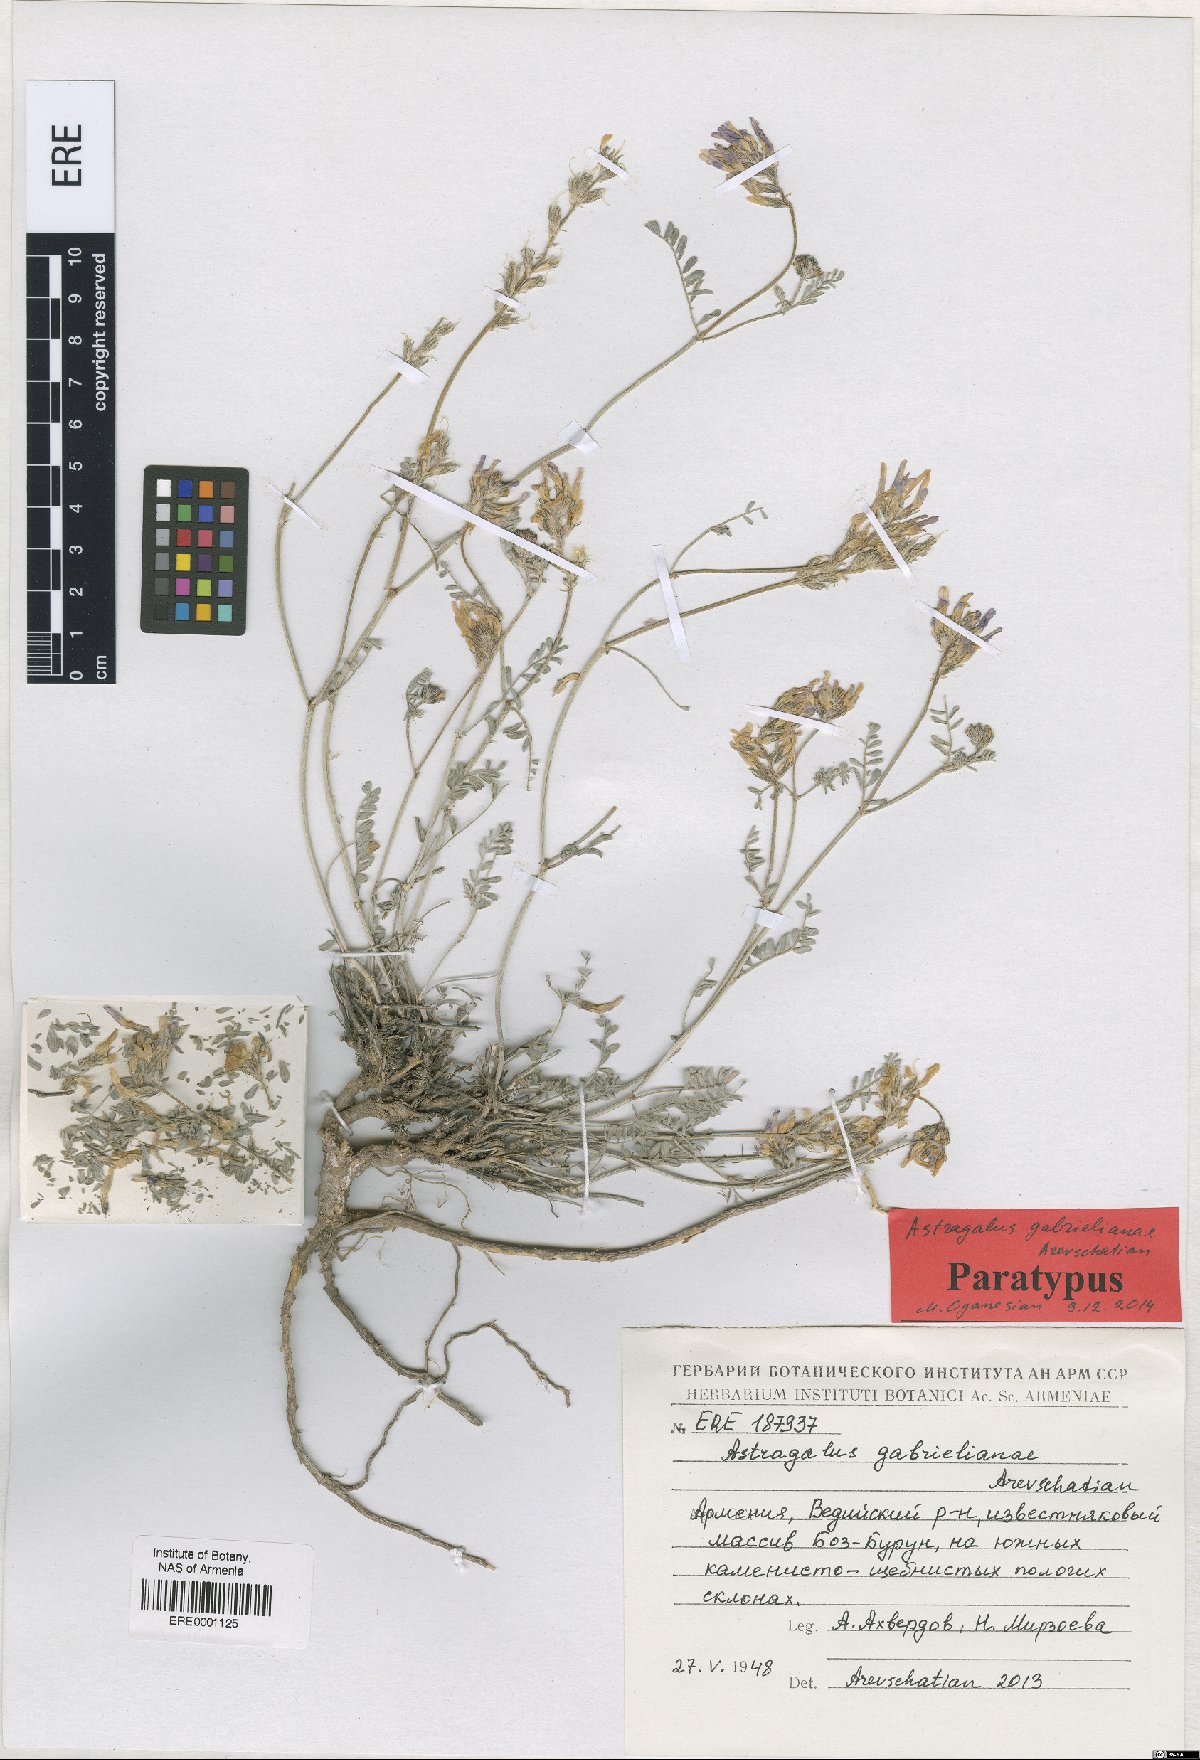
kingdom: Plantae
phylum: Tracheophyta
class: Magnoliopsida
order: Fabales
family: Fabaceae
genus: Astragalus
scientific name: Astragalus gabrelianae
